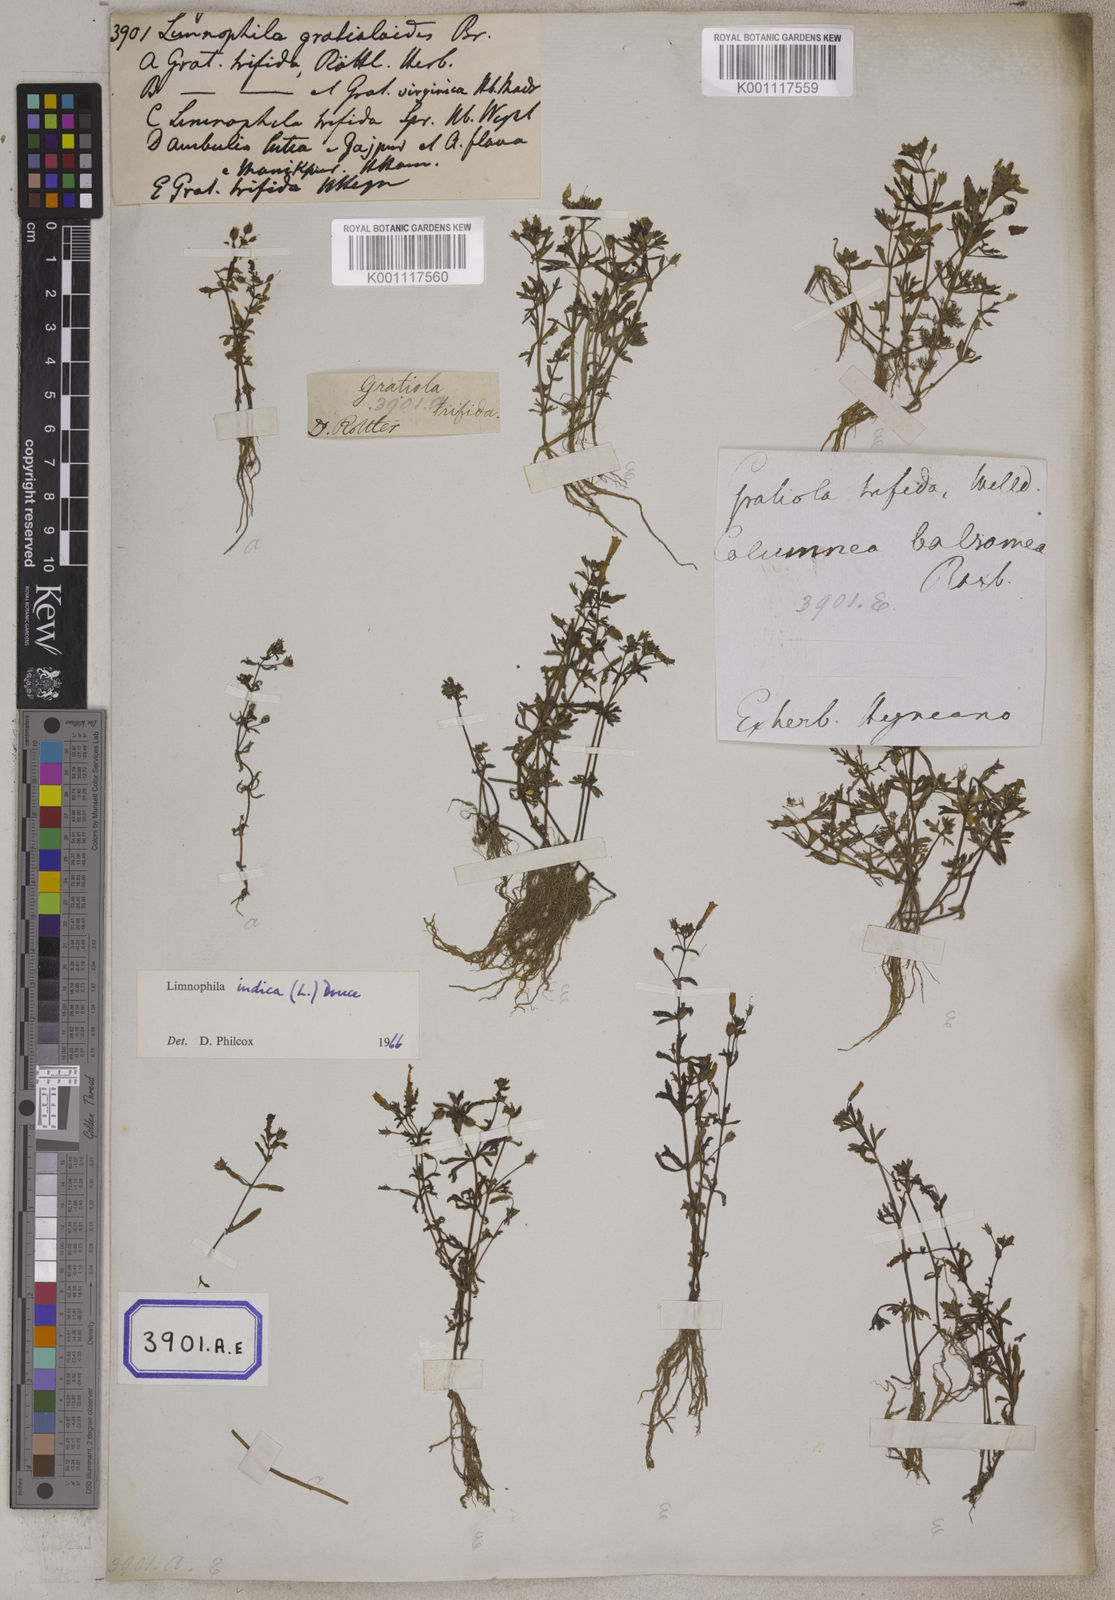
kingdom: Plantae
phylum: Tracheophyta
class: Magnoliopsida
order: Lamiales
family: Plantaginaceae
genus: Limnophila
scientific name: Limnophila indica
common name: Indian marshweed
